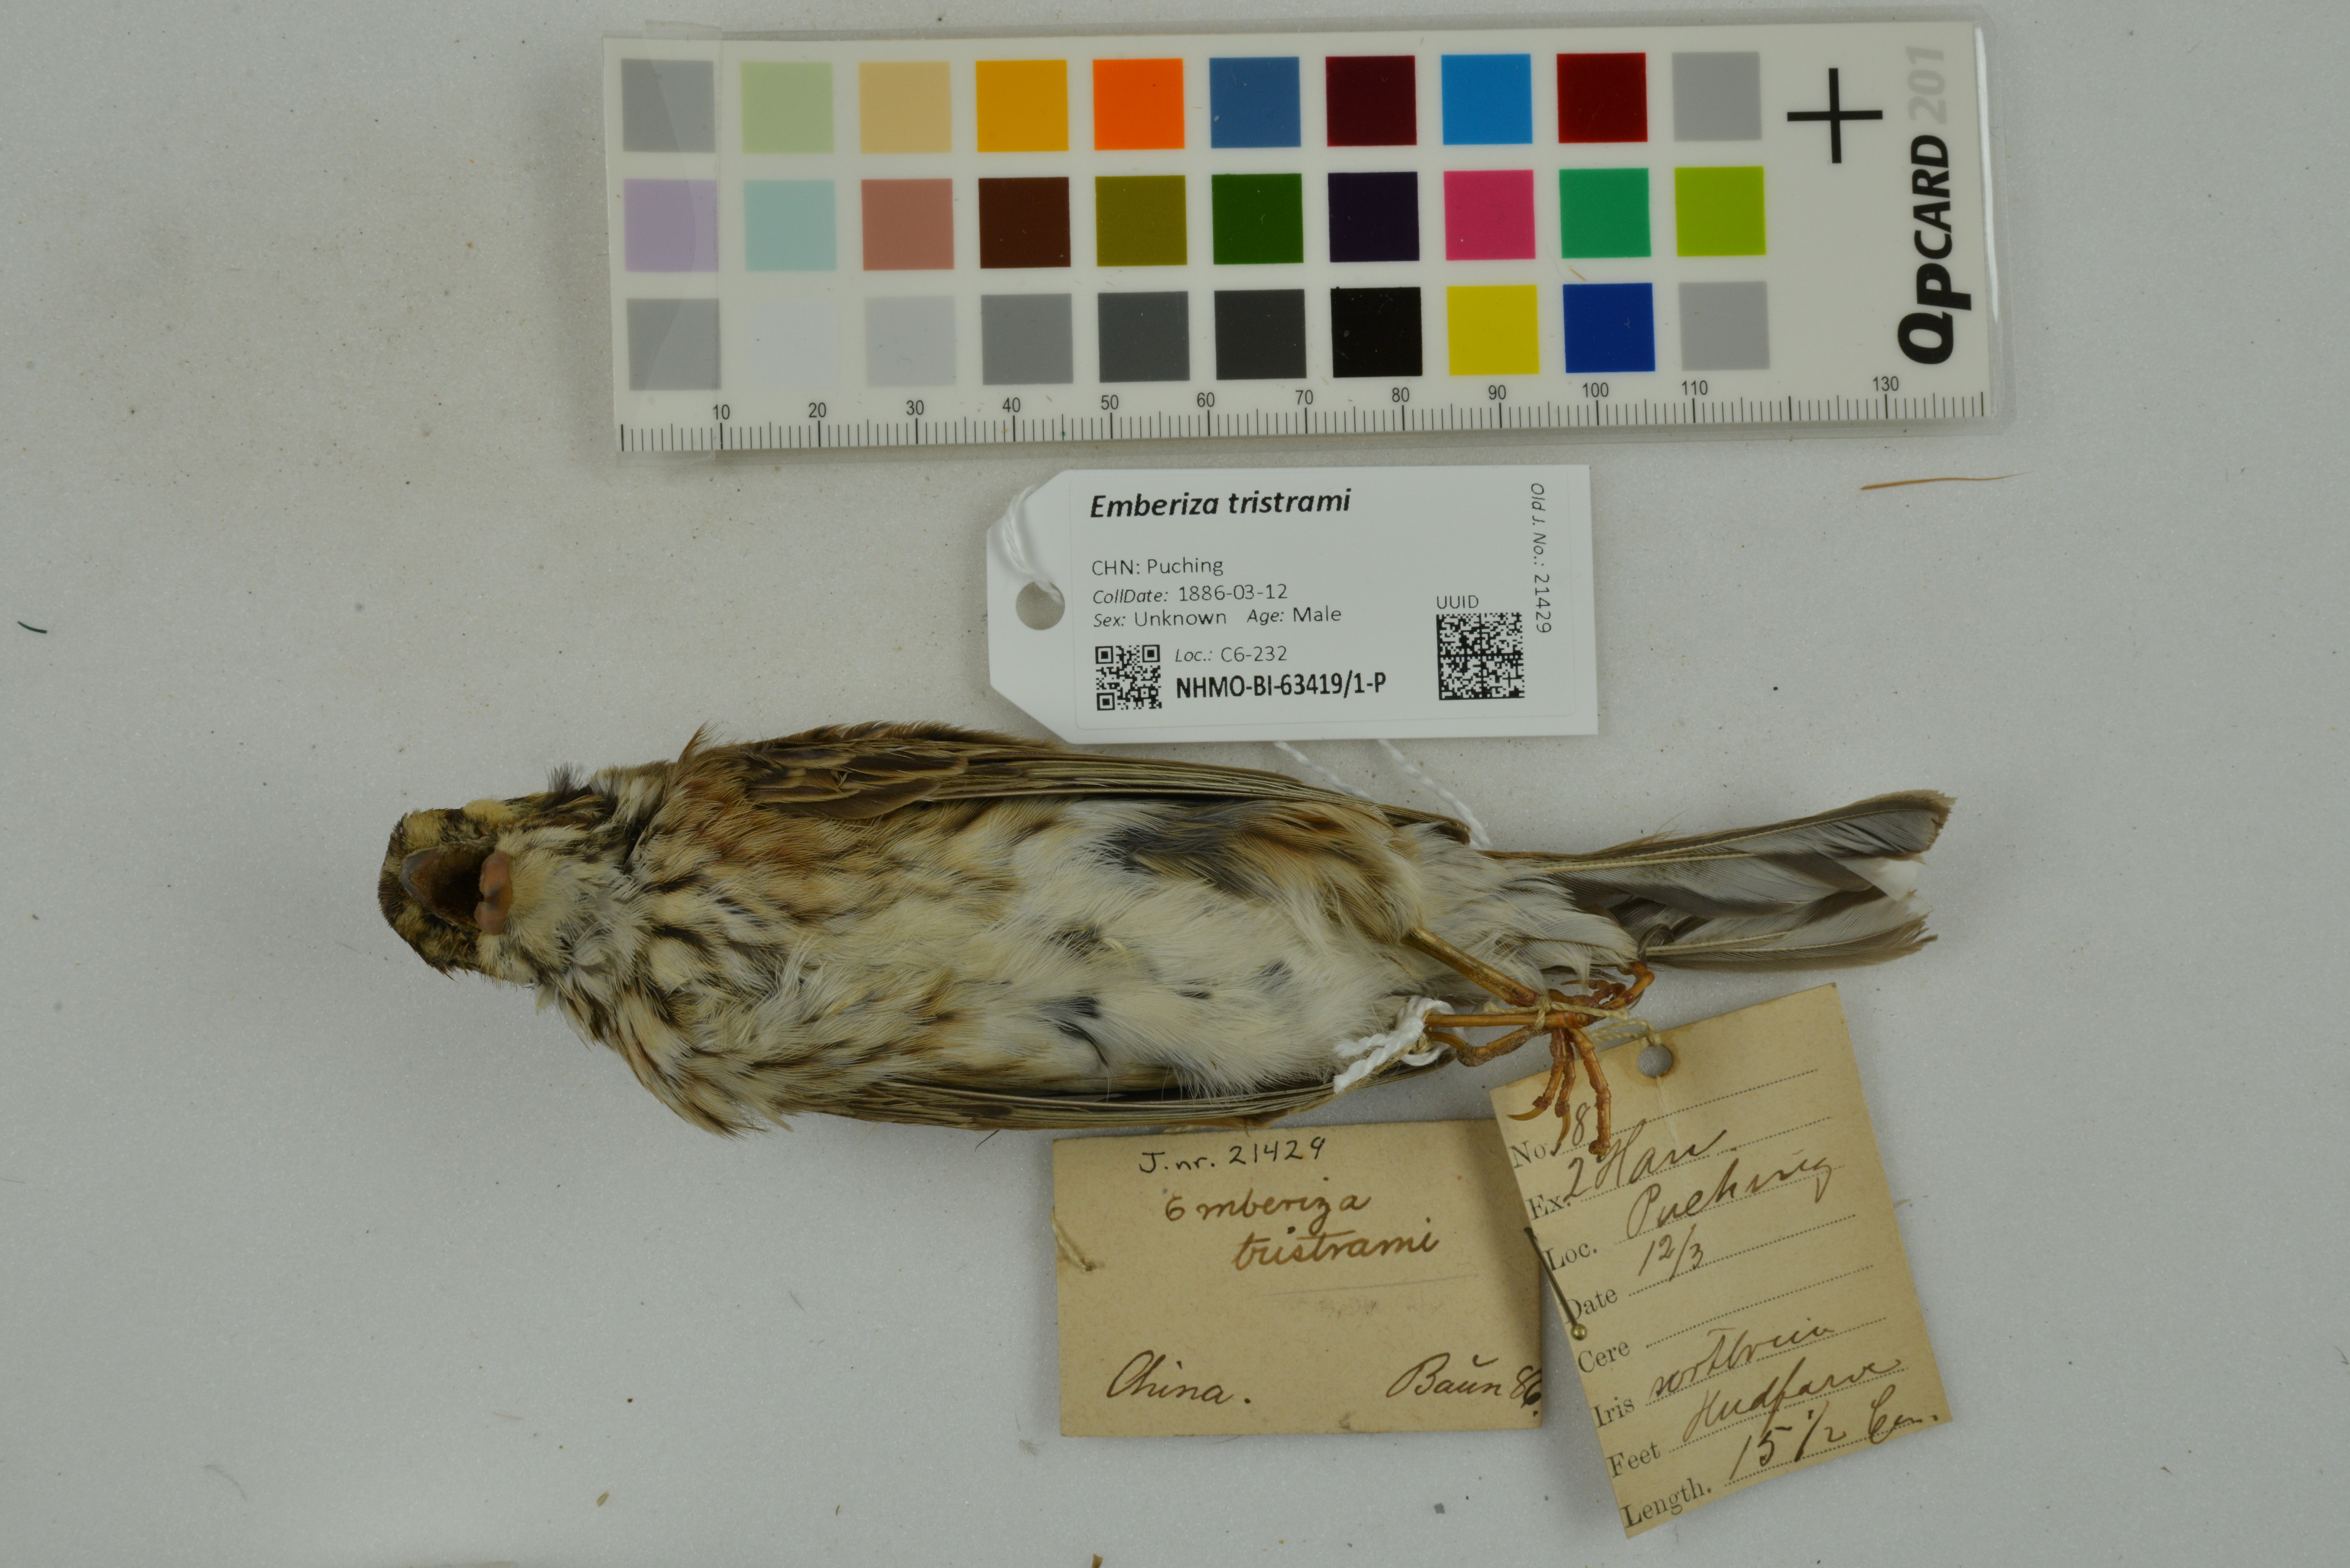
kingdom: Animalia
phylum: Chordata
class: Aves
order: Passeriformes
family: Emberizidae
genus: Emberiza
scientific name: Emberiza tristrami
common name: Tristram's bunting
